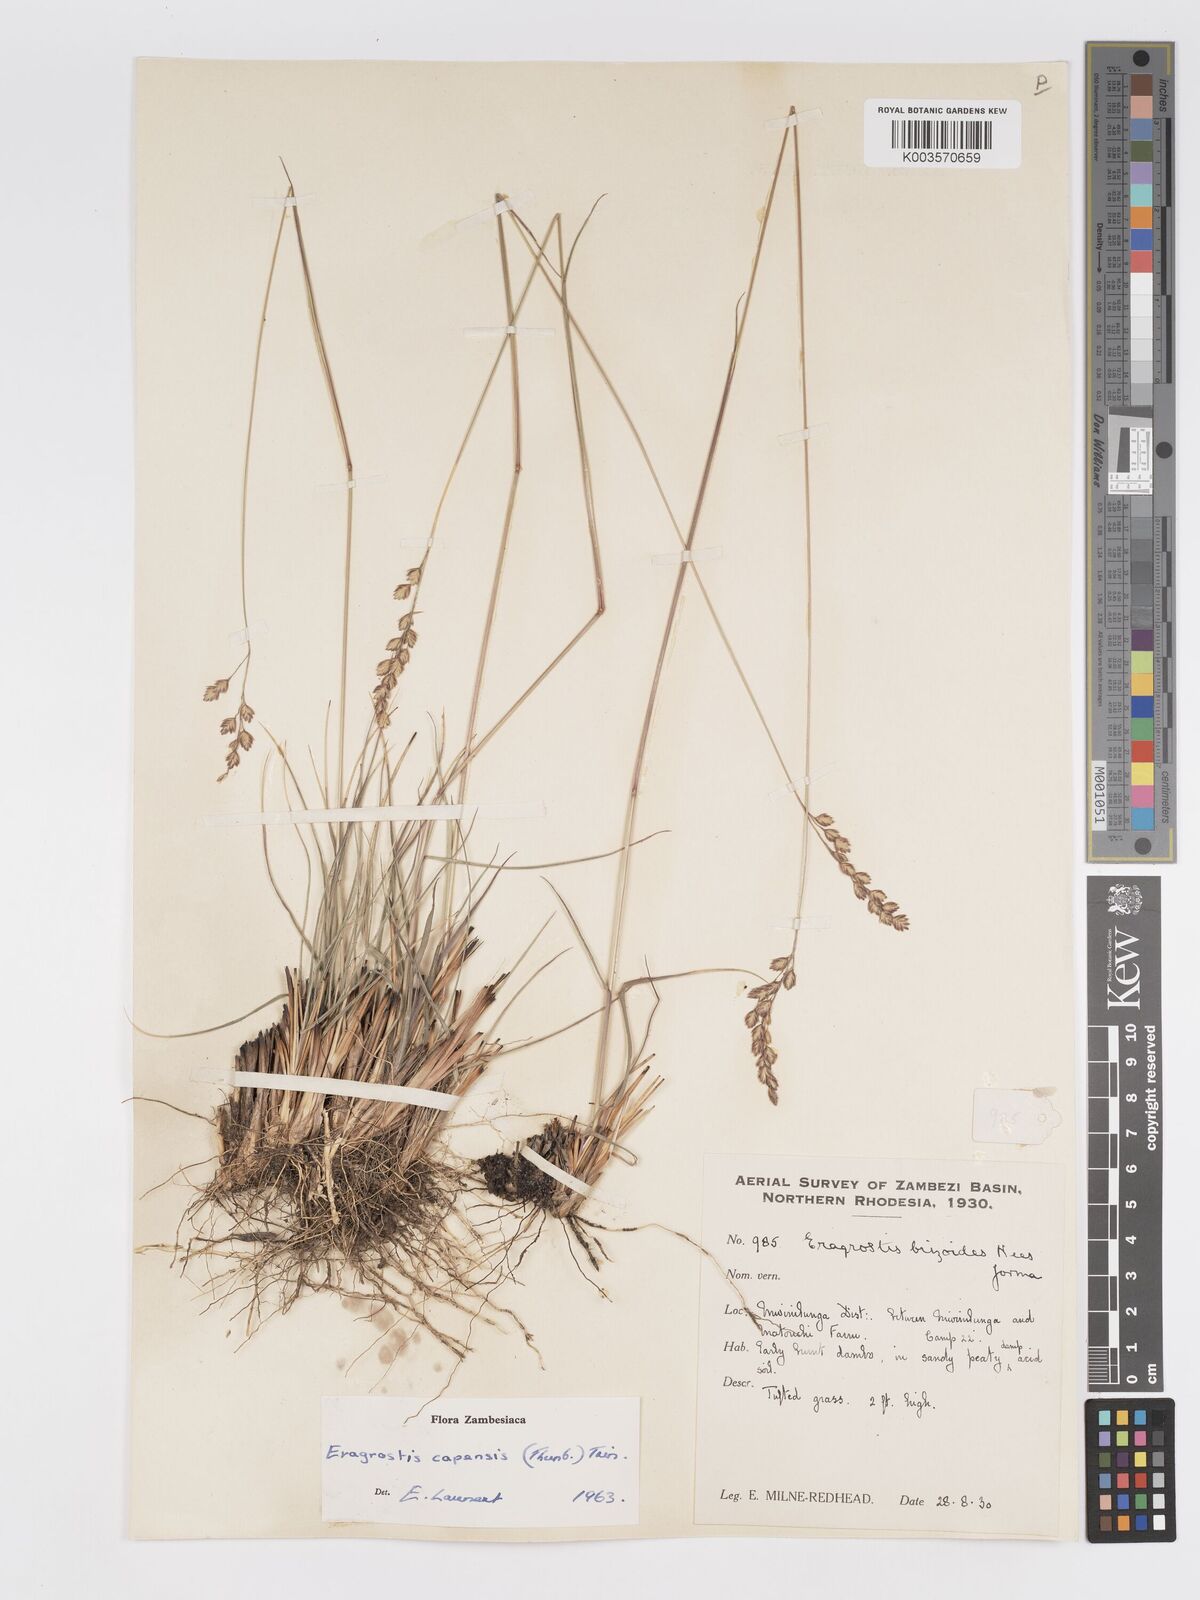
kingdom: Plantae
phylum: Tracheophyta
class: Liliopsida
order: Poales
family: Poaceae
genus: Eragrostis
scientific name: Eragrostis capensis
